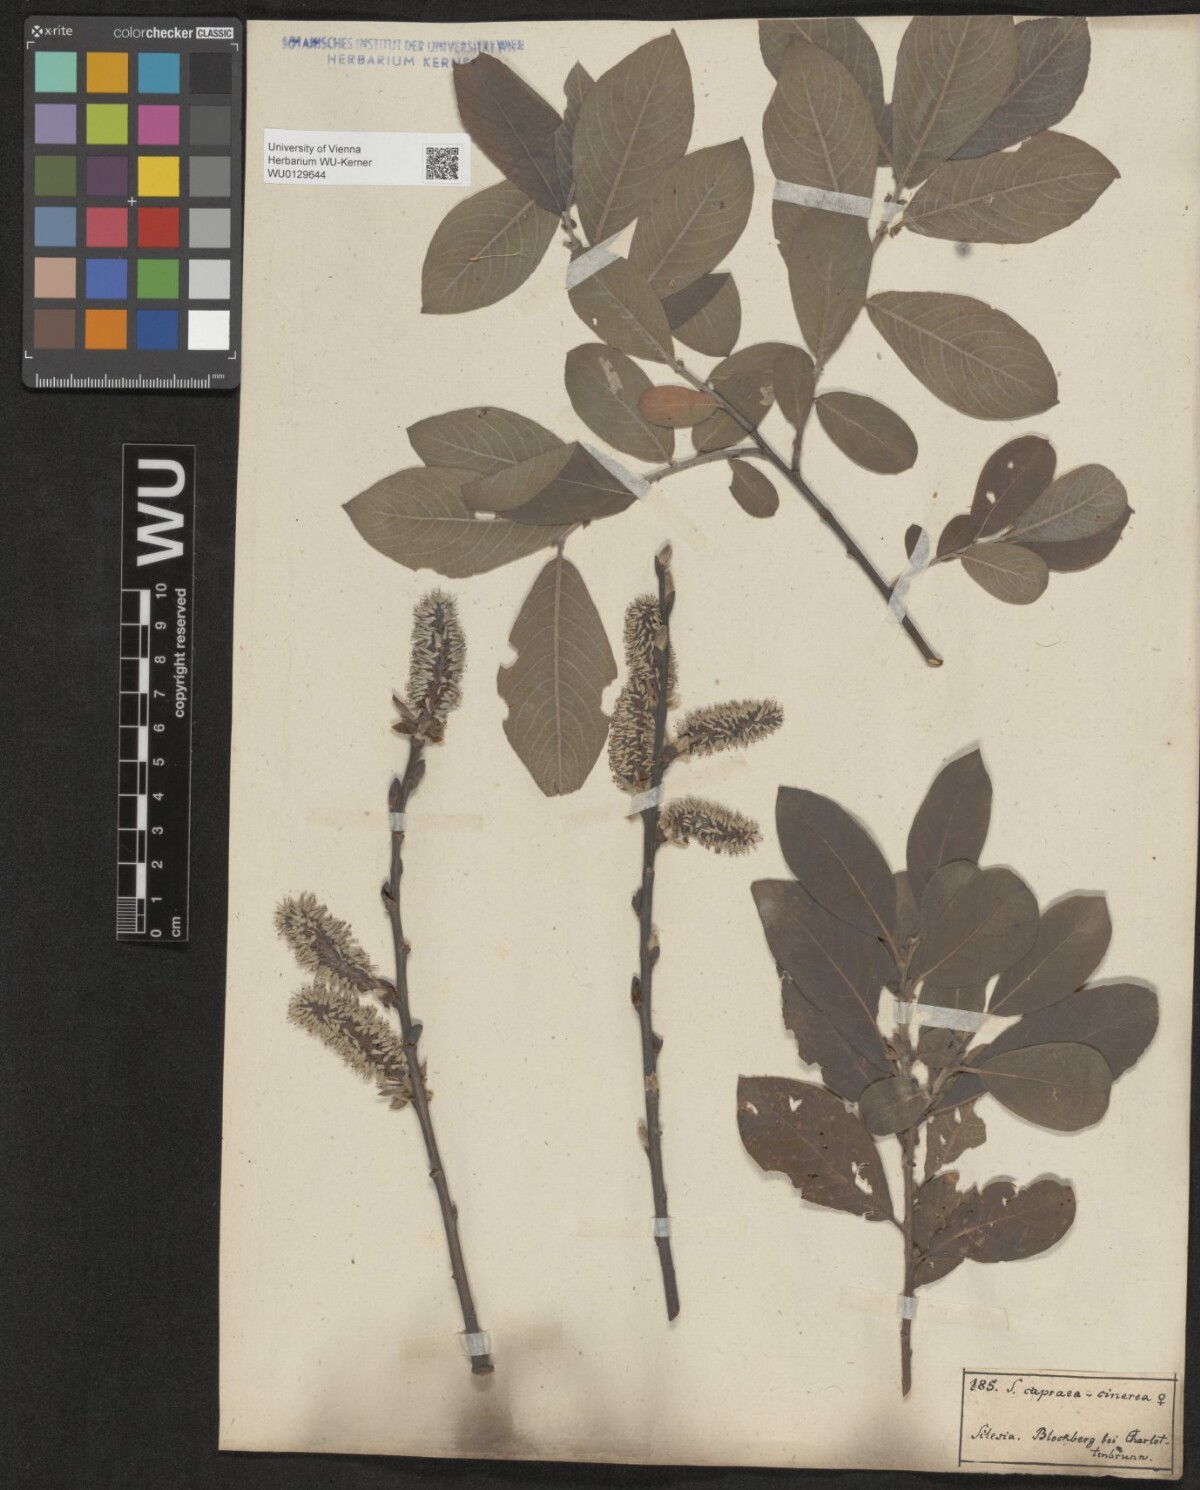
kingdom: Plantae
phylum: Tracheophyta
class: Magnoliopsida
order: Malpighiales
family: Salicaceae
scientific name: Salicaceae
